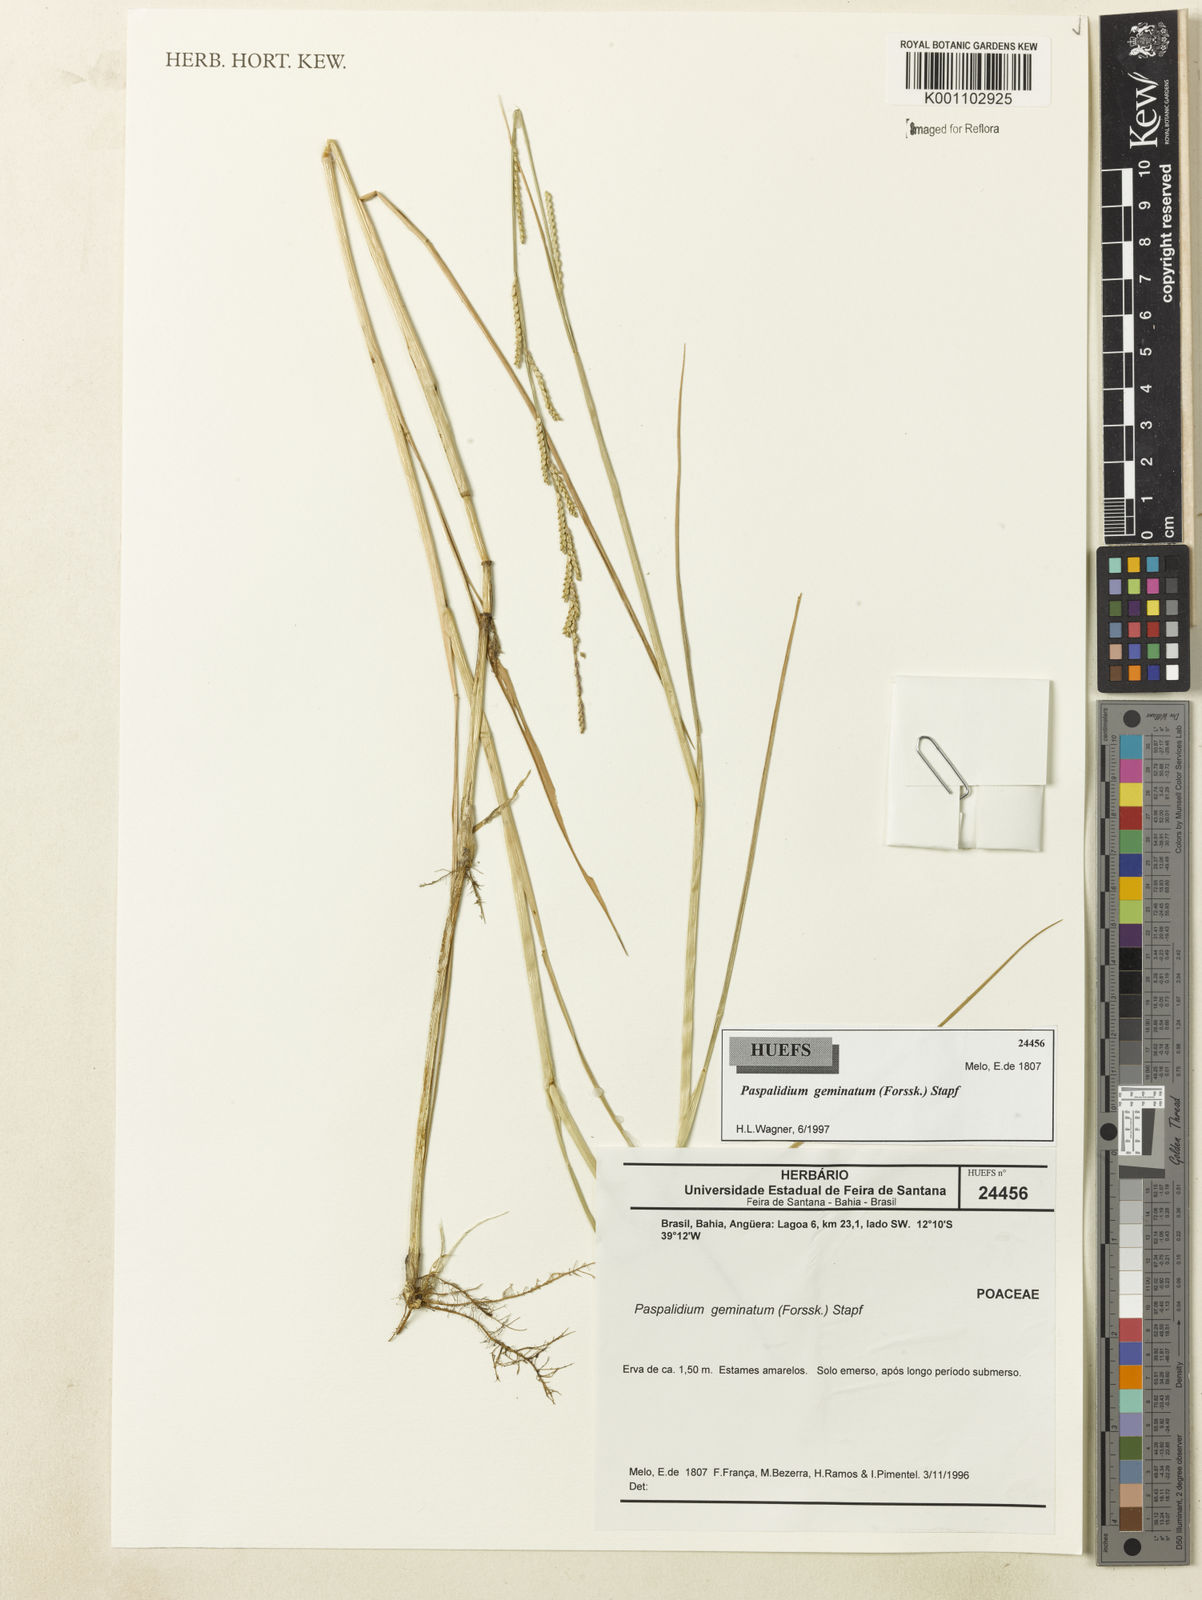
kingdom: Plantae
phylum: Tracheophyta
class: Liliopsida
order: Poales
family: Poaceae
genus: Setaria
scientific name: Setaria geminata
